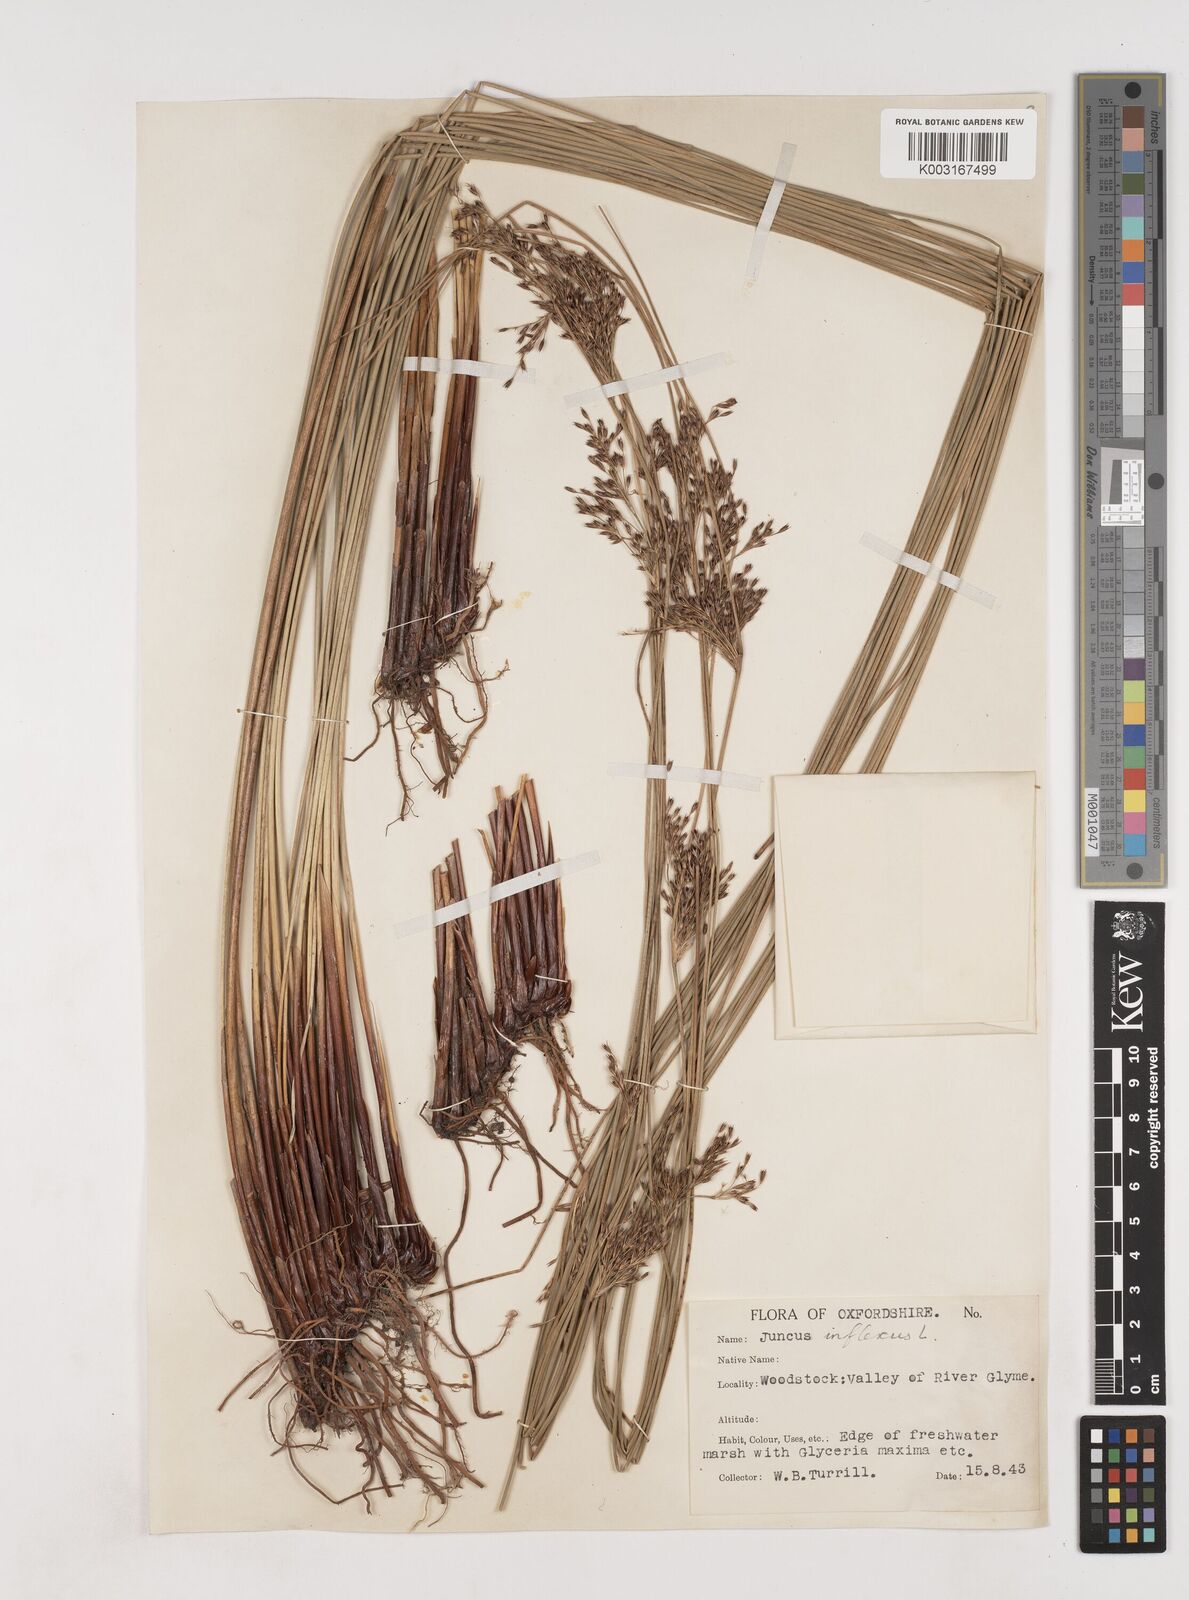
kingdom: Plantae
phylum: Tracheophyta
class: Liliopsida
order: Poales
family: Juncaceae
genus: Juncus
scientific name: Juncus inflexus
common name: Hard rush
